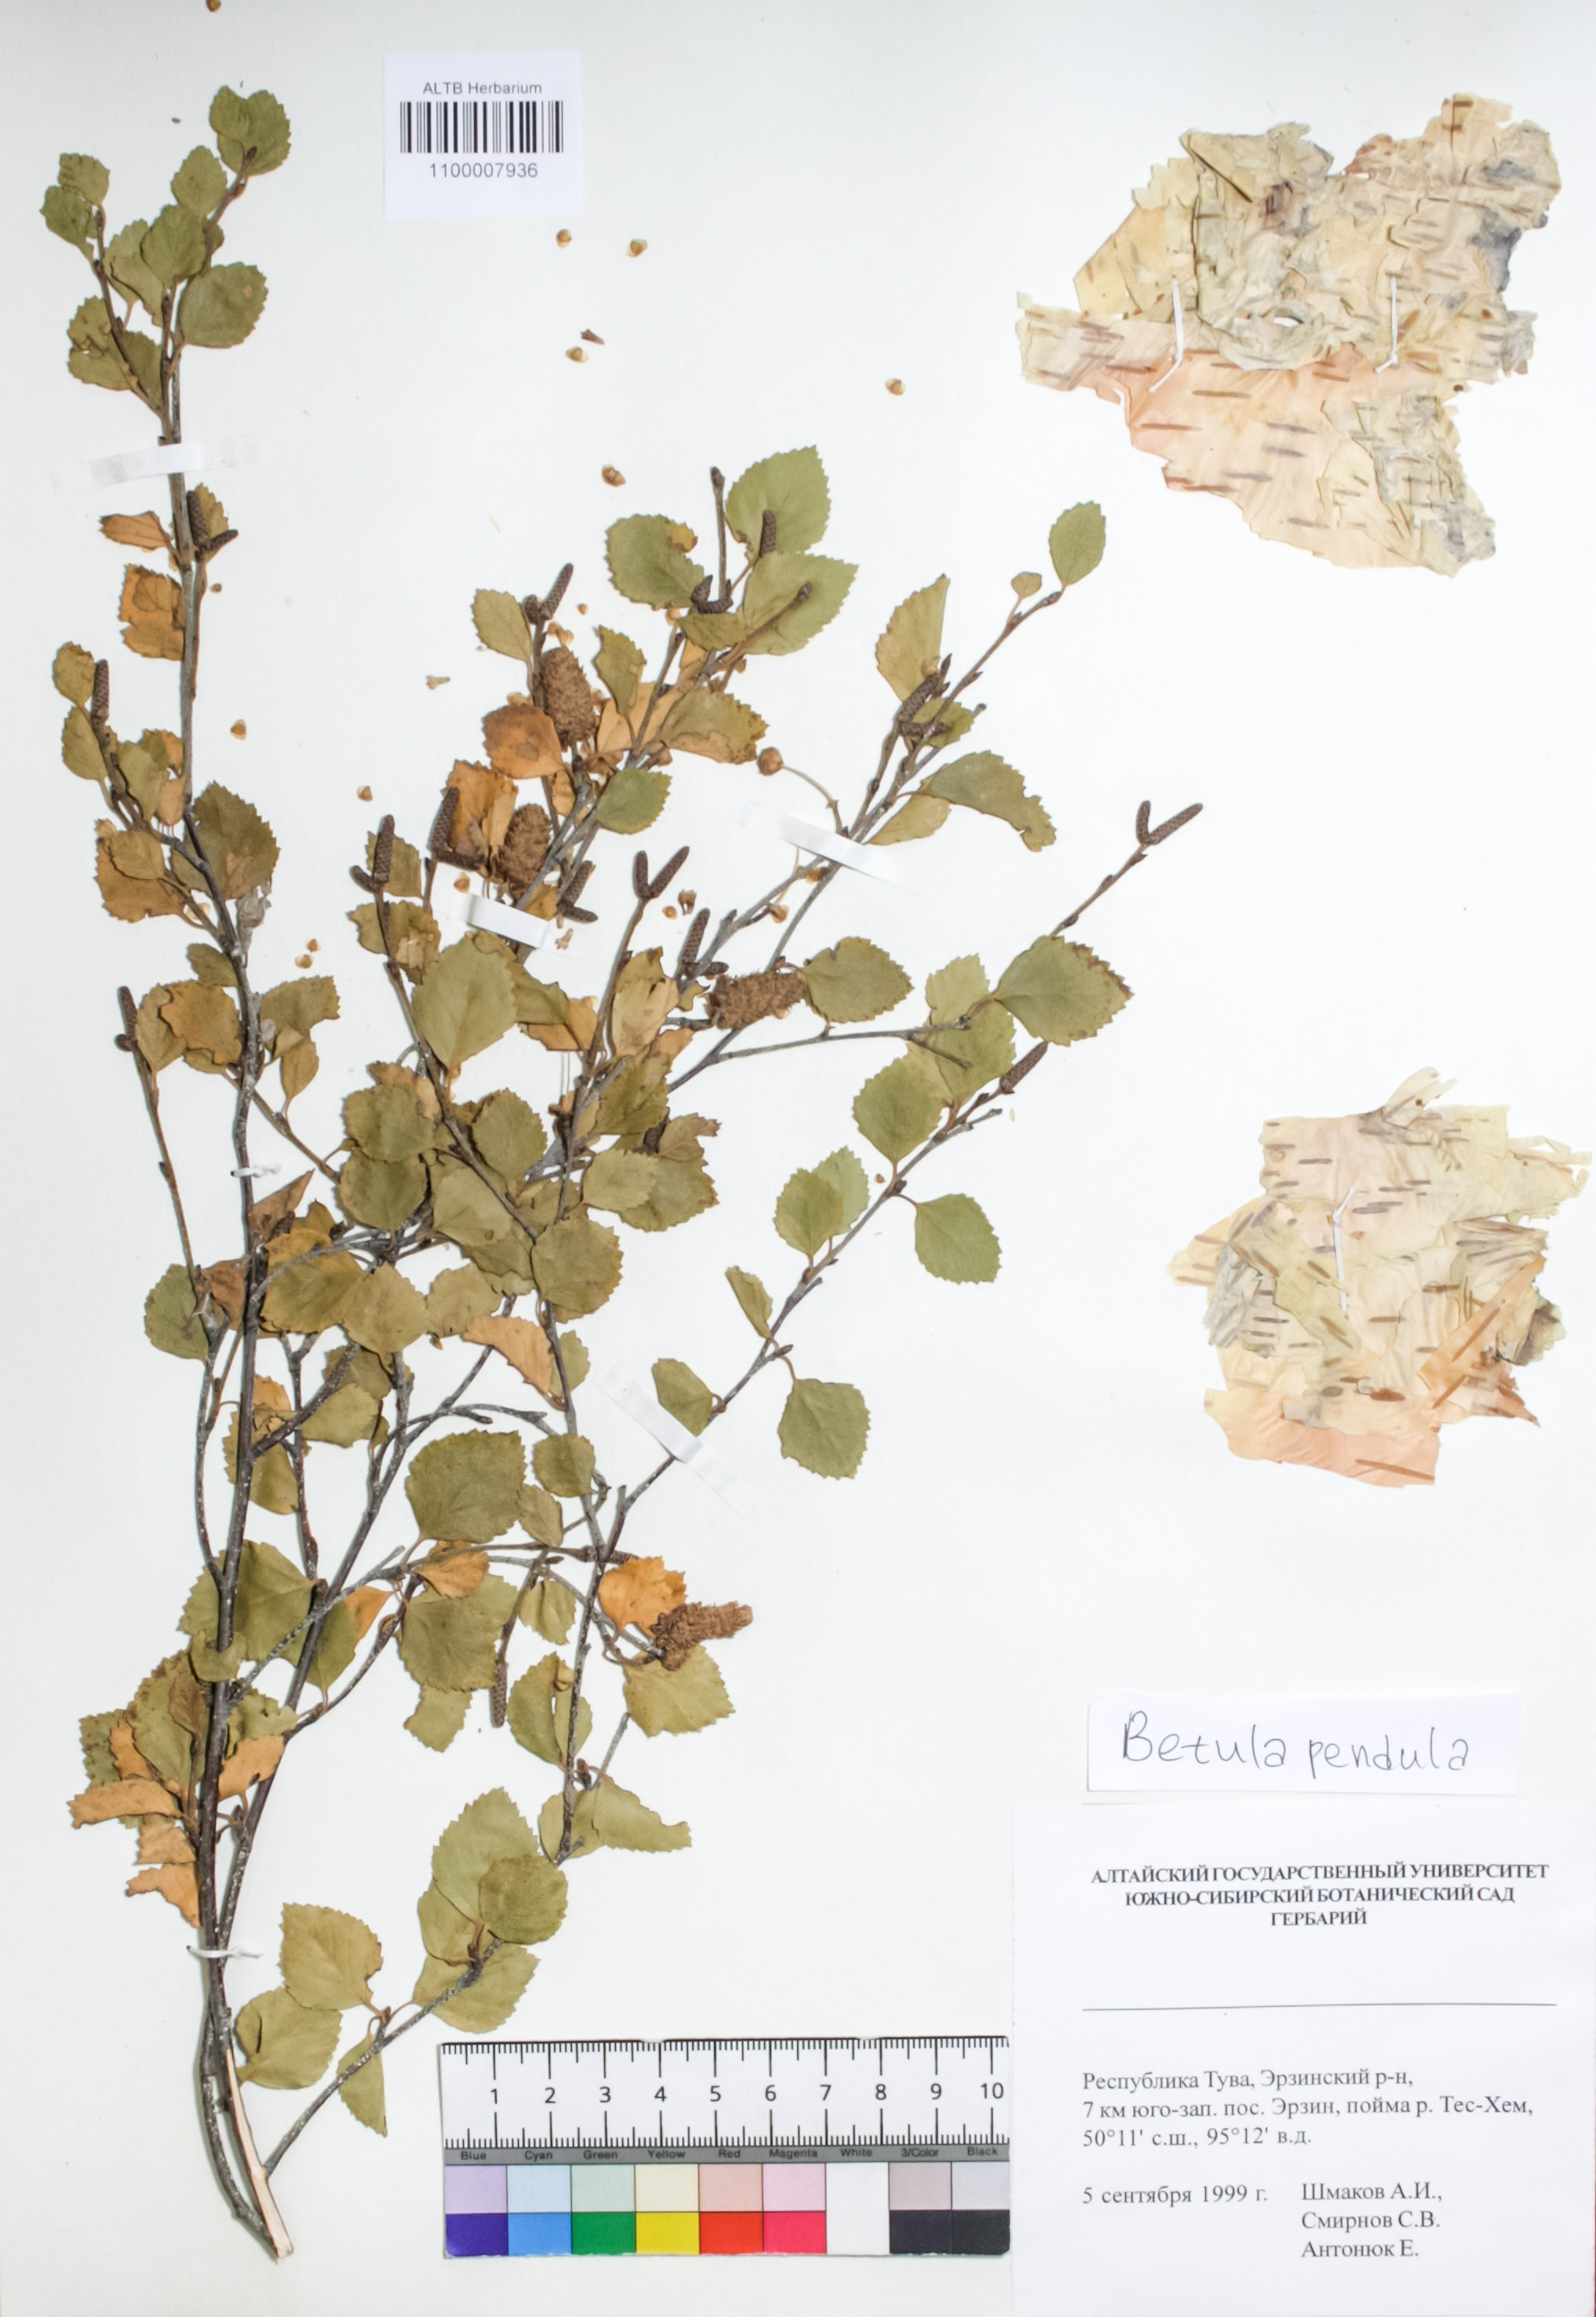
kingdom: Plantae
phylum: Tracheophyta
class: Magnoliopsida
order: Fagales
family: Betulaceae
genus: Betula
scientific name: Betula pendula
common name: Silver birch
